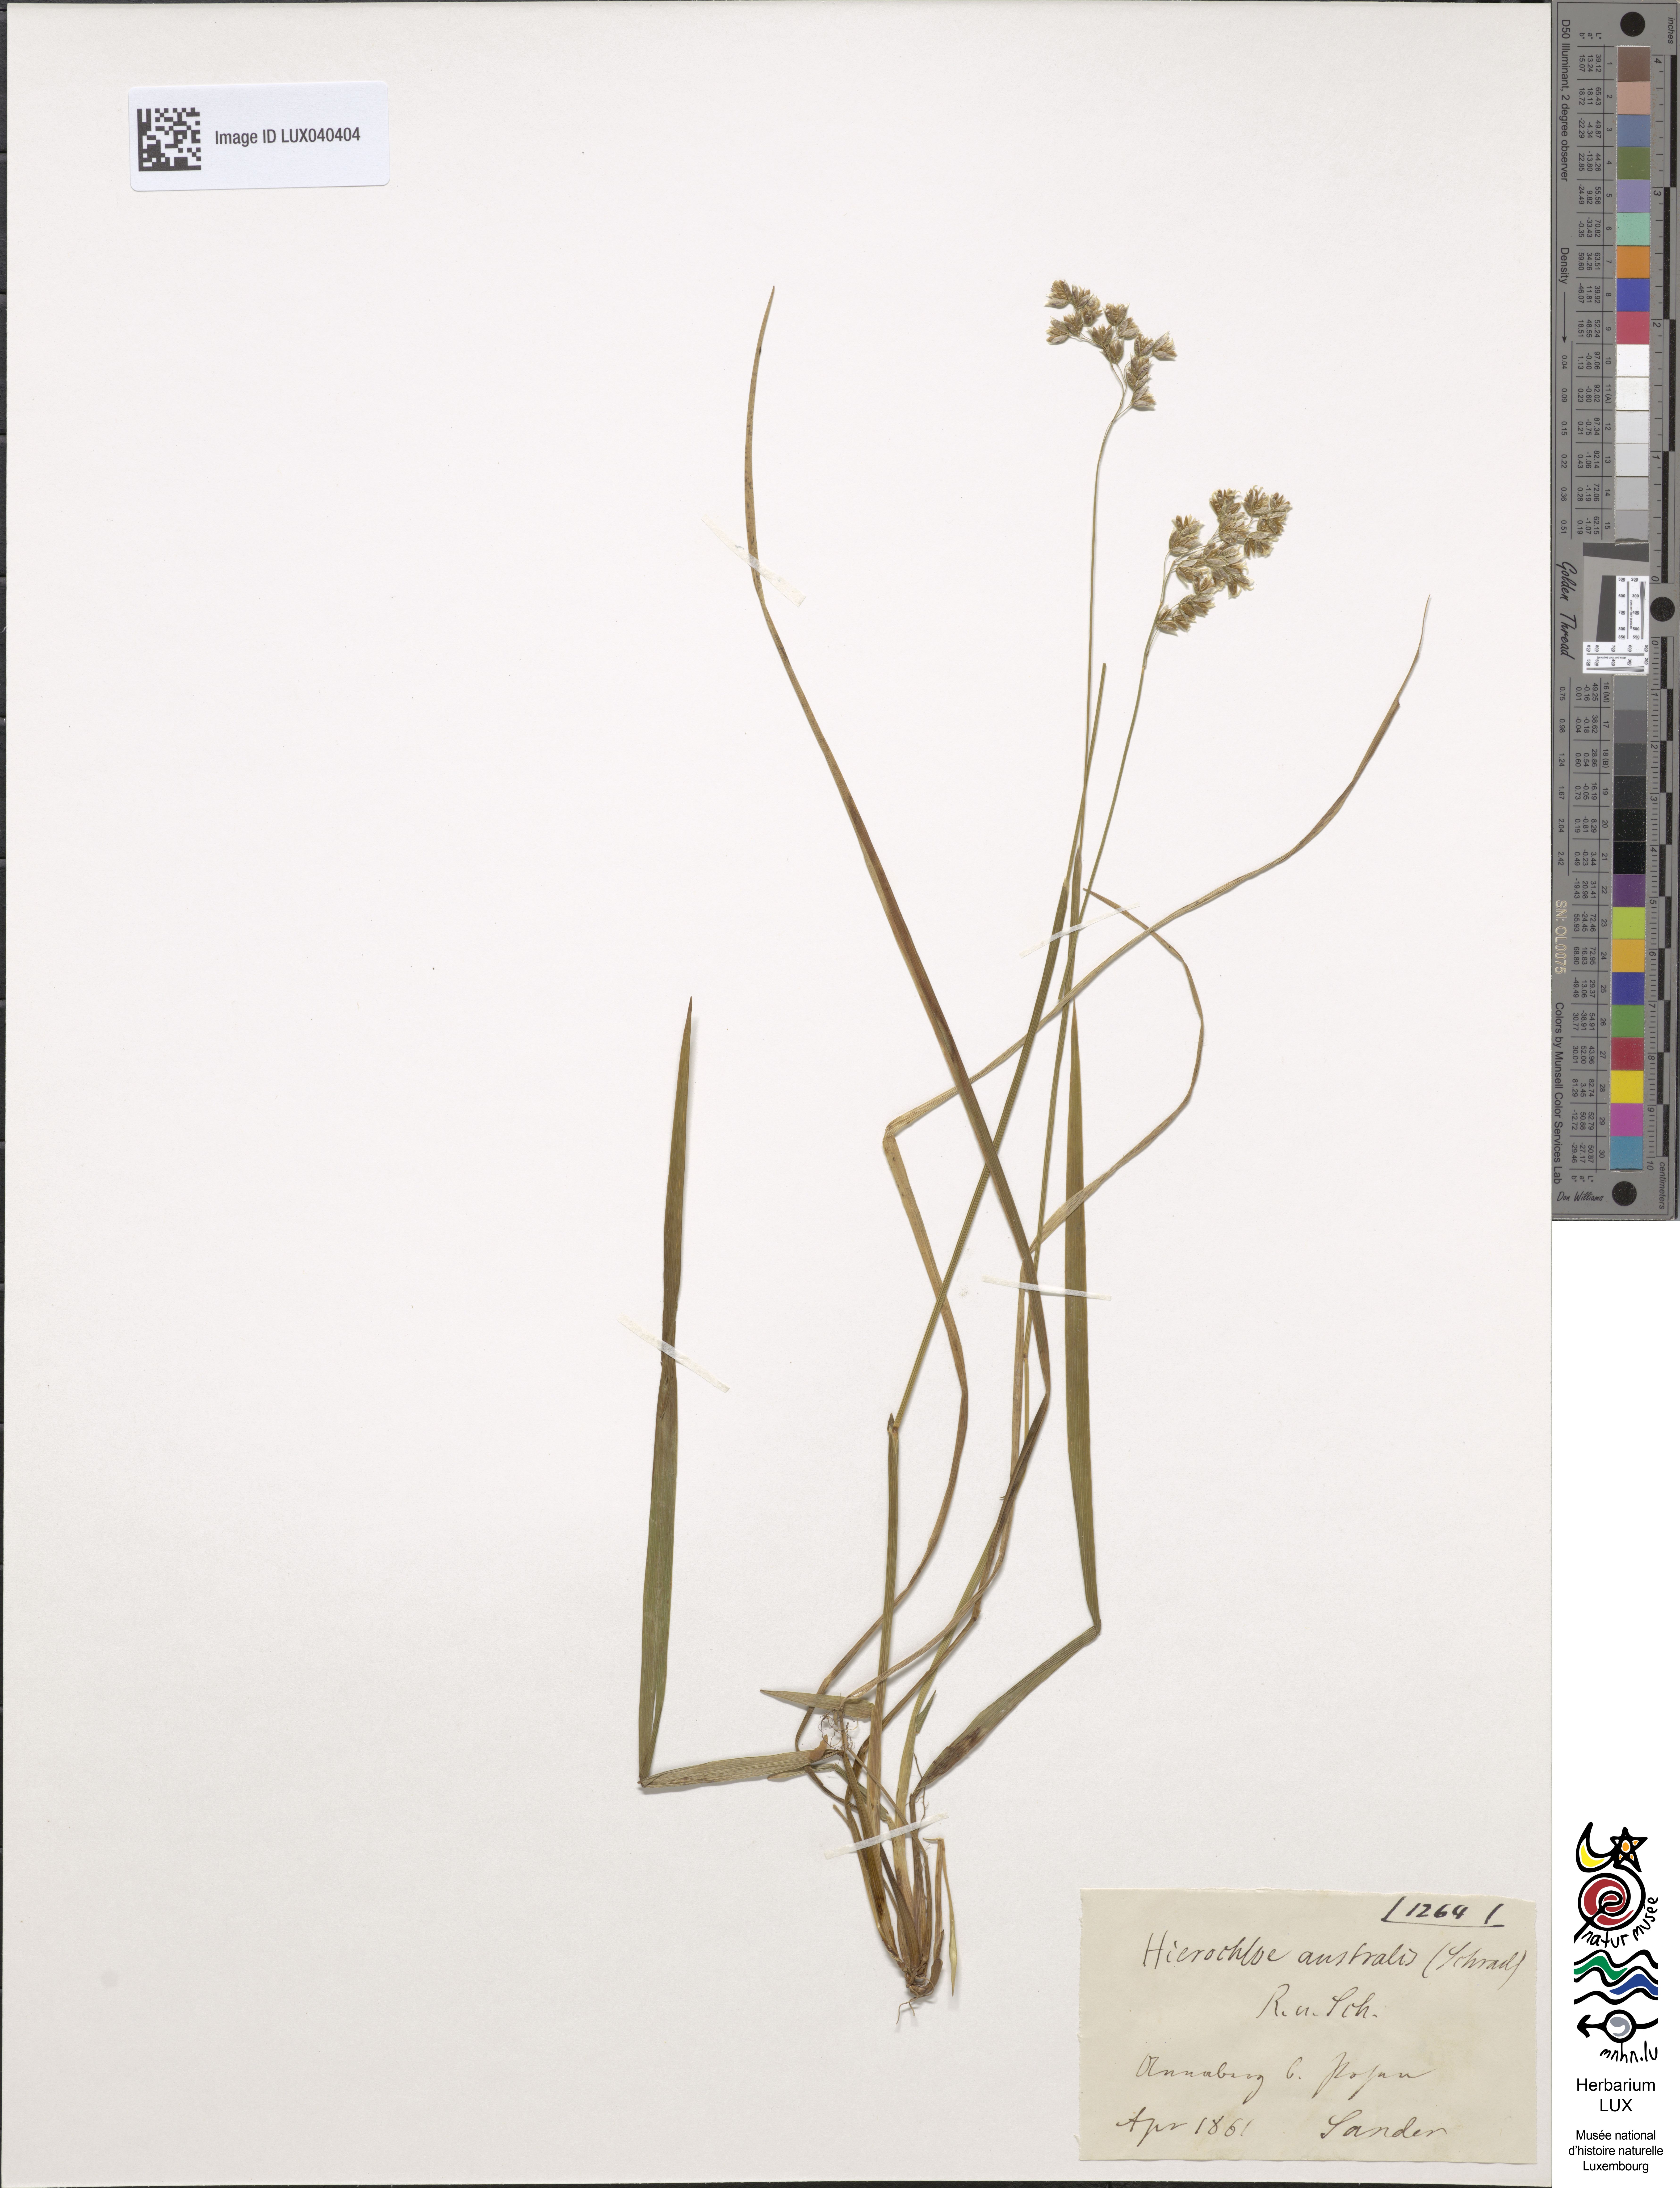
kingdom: Plantae
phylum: Tracheophyta
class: Liliopsida
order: Poales
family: Poaceae
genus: Anthoxanthum
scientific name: Anthoxanthum australe
